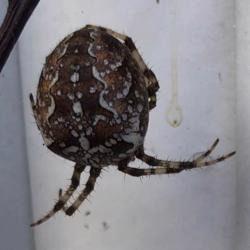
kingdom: Animalia
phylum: Arthropoda
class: Arachnida
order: Araneae
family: Araneidae
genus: Araneus
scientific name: Araneus diadematus
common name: Korsedderkop
